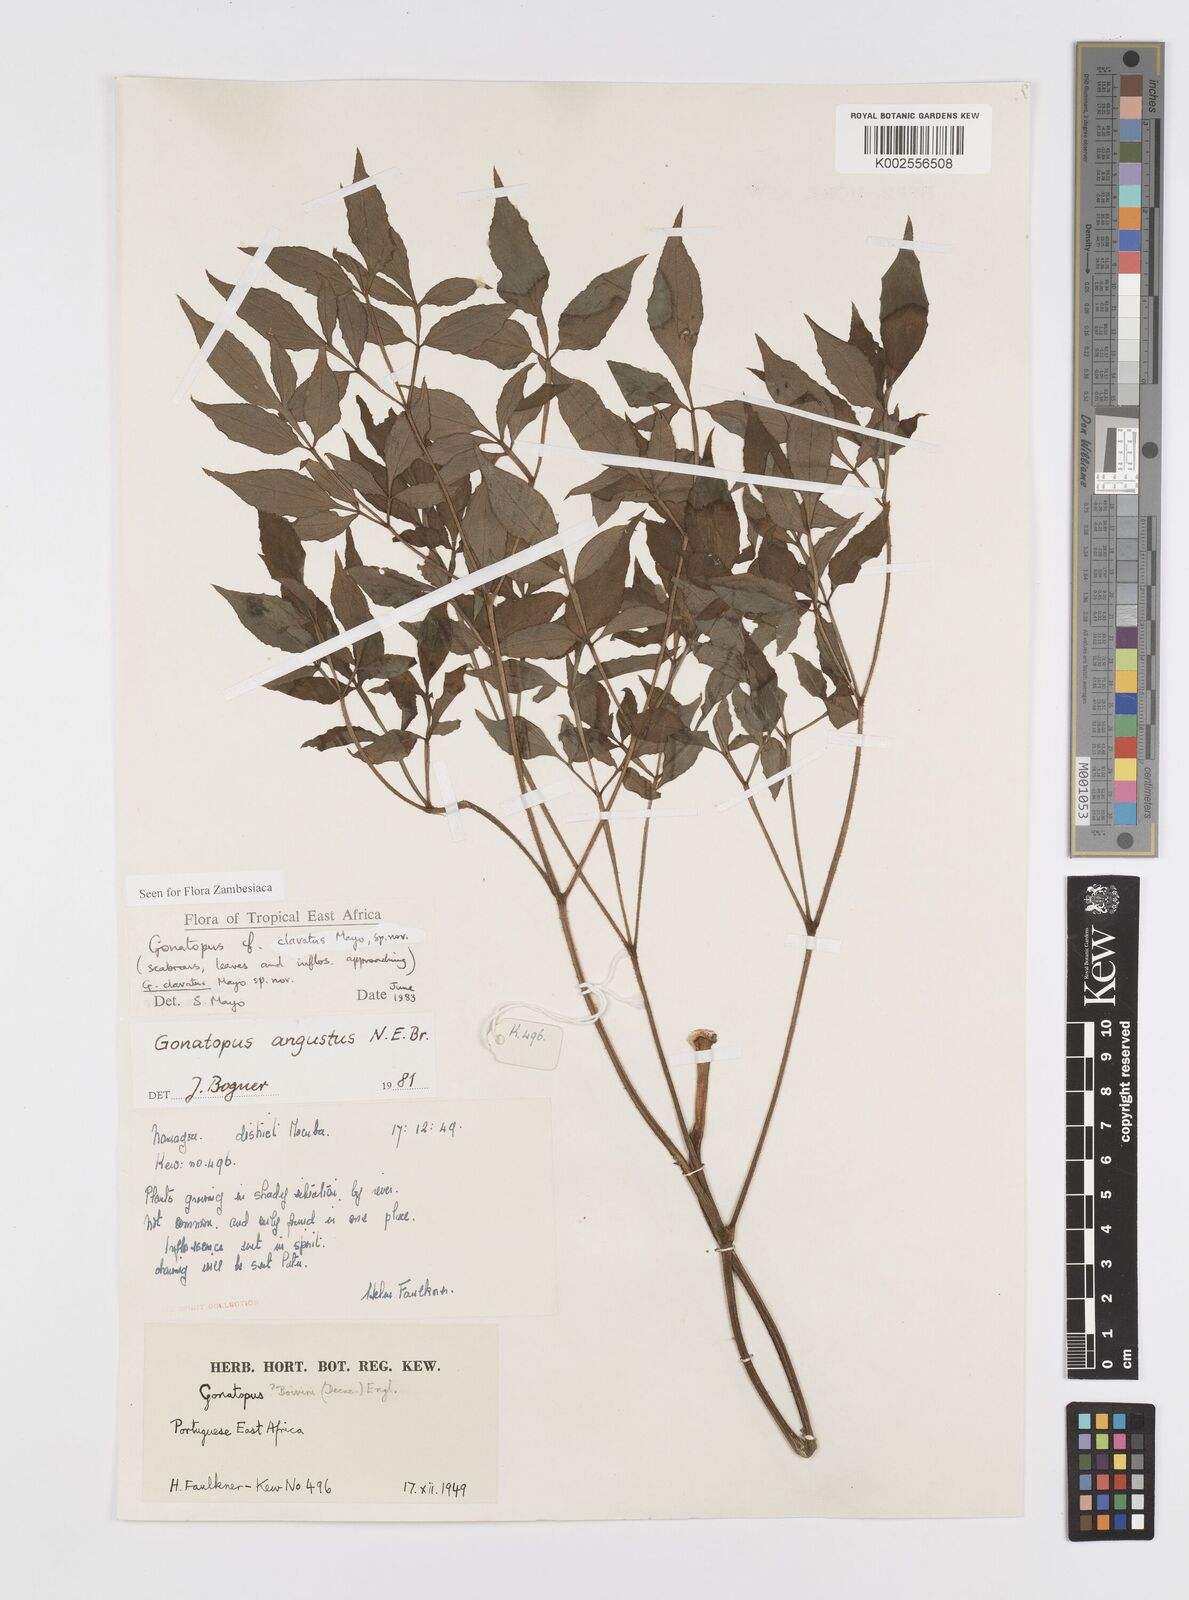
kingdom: Plantae
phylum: Tracheophyta
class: Liliopsida
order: Alismatales
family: Araceae
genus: Gonatopus
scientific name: Gonatopus clavatus
